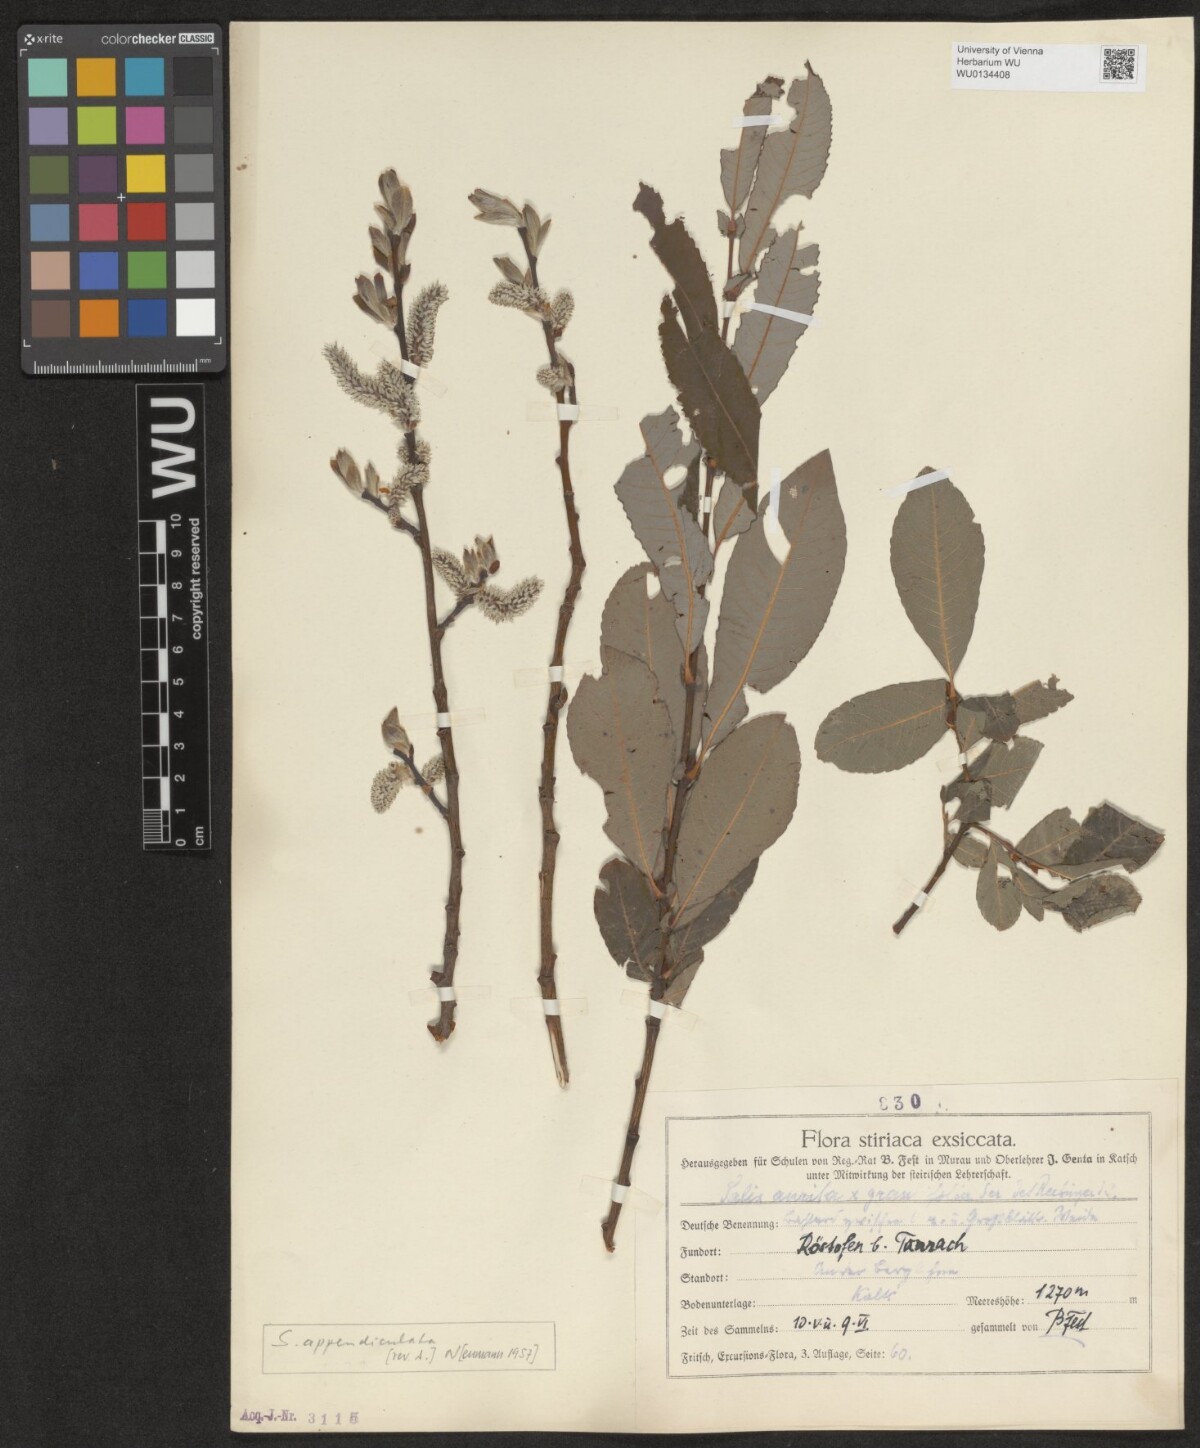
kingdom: Plantae
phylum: Tracheophyta
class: Magnoliopsida
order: Malpighiales
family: Salicaceae
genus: Salix
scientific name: Salix appendiculata
